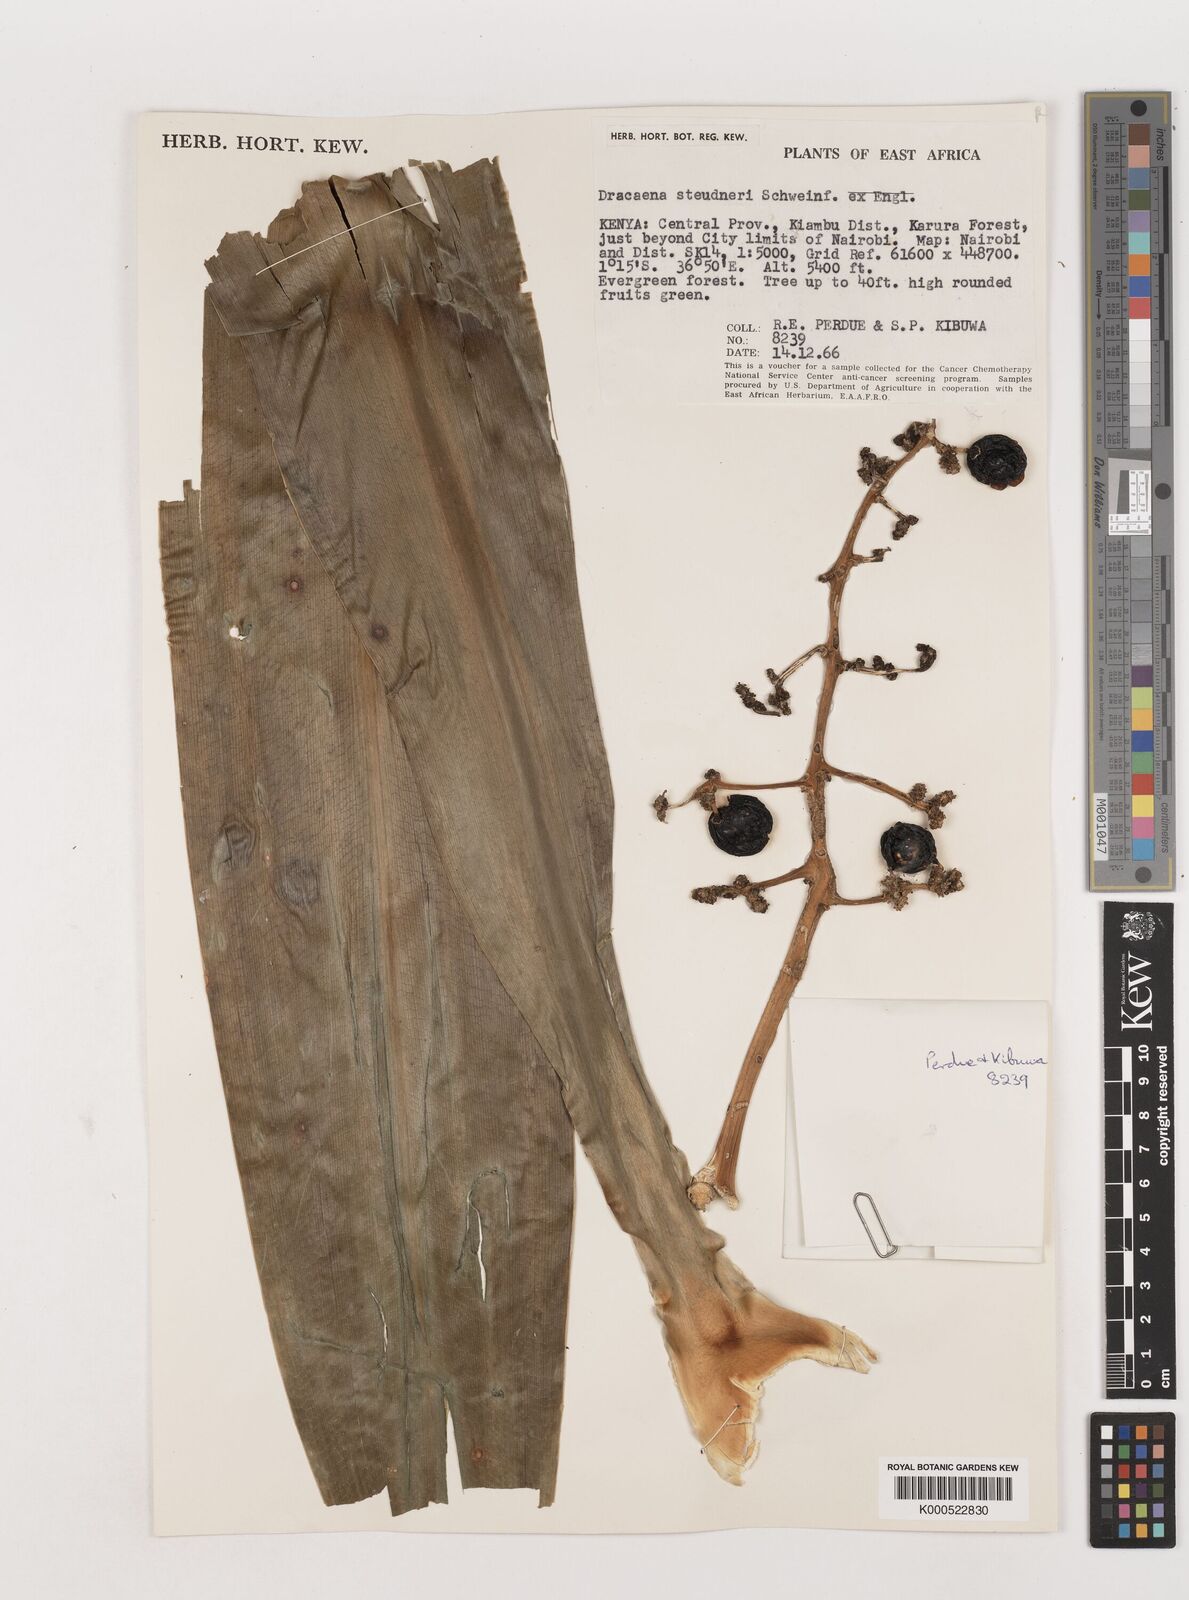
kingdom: Plantae
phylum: Tracheophyta
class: Liliopsida
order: Asparagales
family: Asparagaceae
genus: Dracaena
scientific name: Dracaena steudneri
